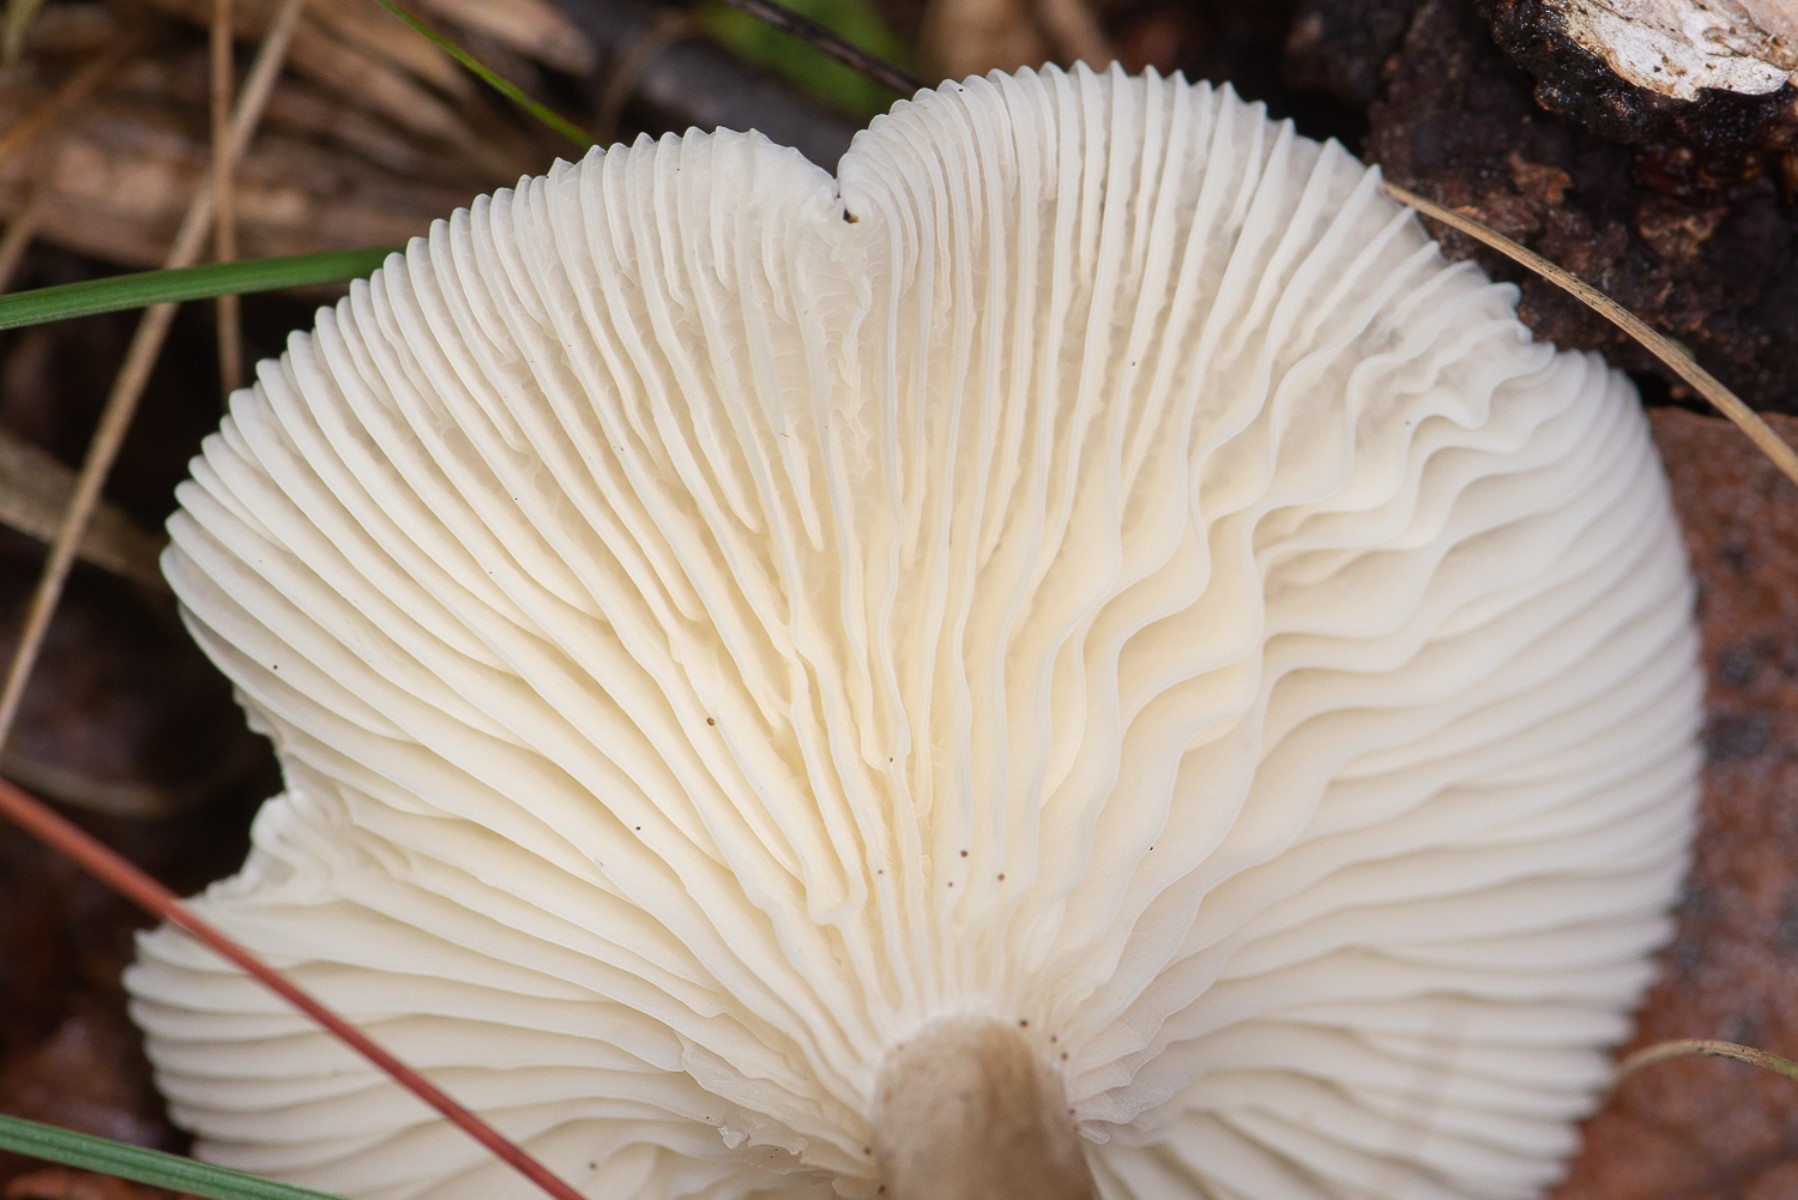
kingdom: Fungi
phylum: Basidiomycota
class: Agaricomycetes
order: Agaricales
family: Hygrophoraceae
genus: Ampulloclitocybe
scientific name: Ampulloclitocybe clavipes
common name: køllefod
